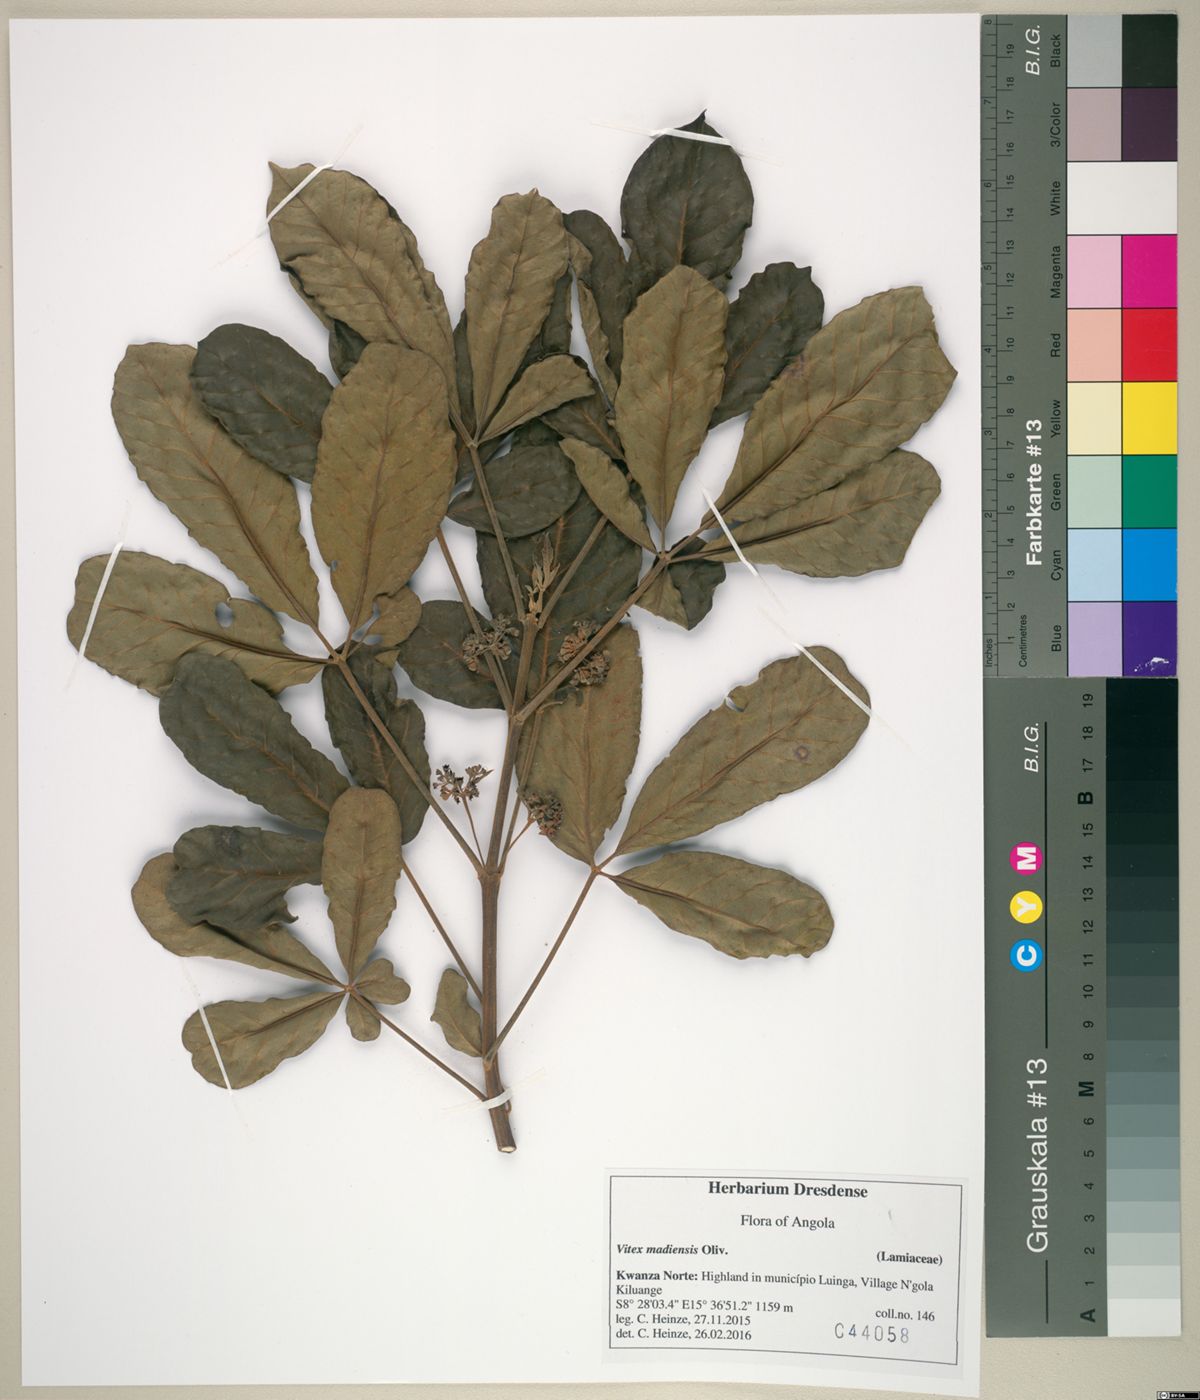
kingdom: Plantae
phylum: Tracheophyta
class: Magnoliopsida
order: Lamiales
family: Lamiaceae
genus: Vitex
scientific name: Vitex doniana
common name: Black plum
